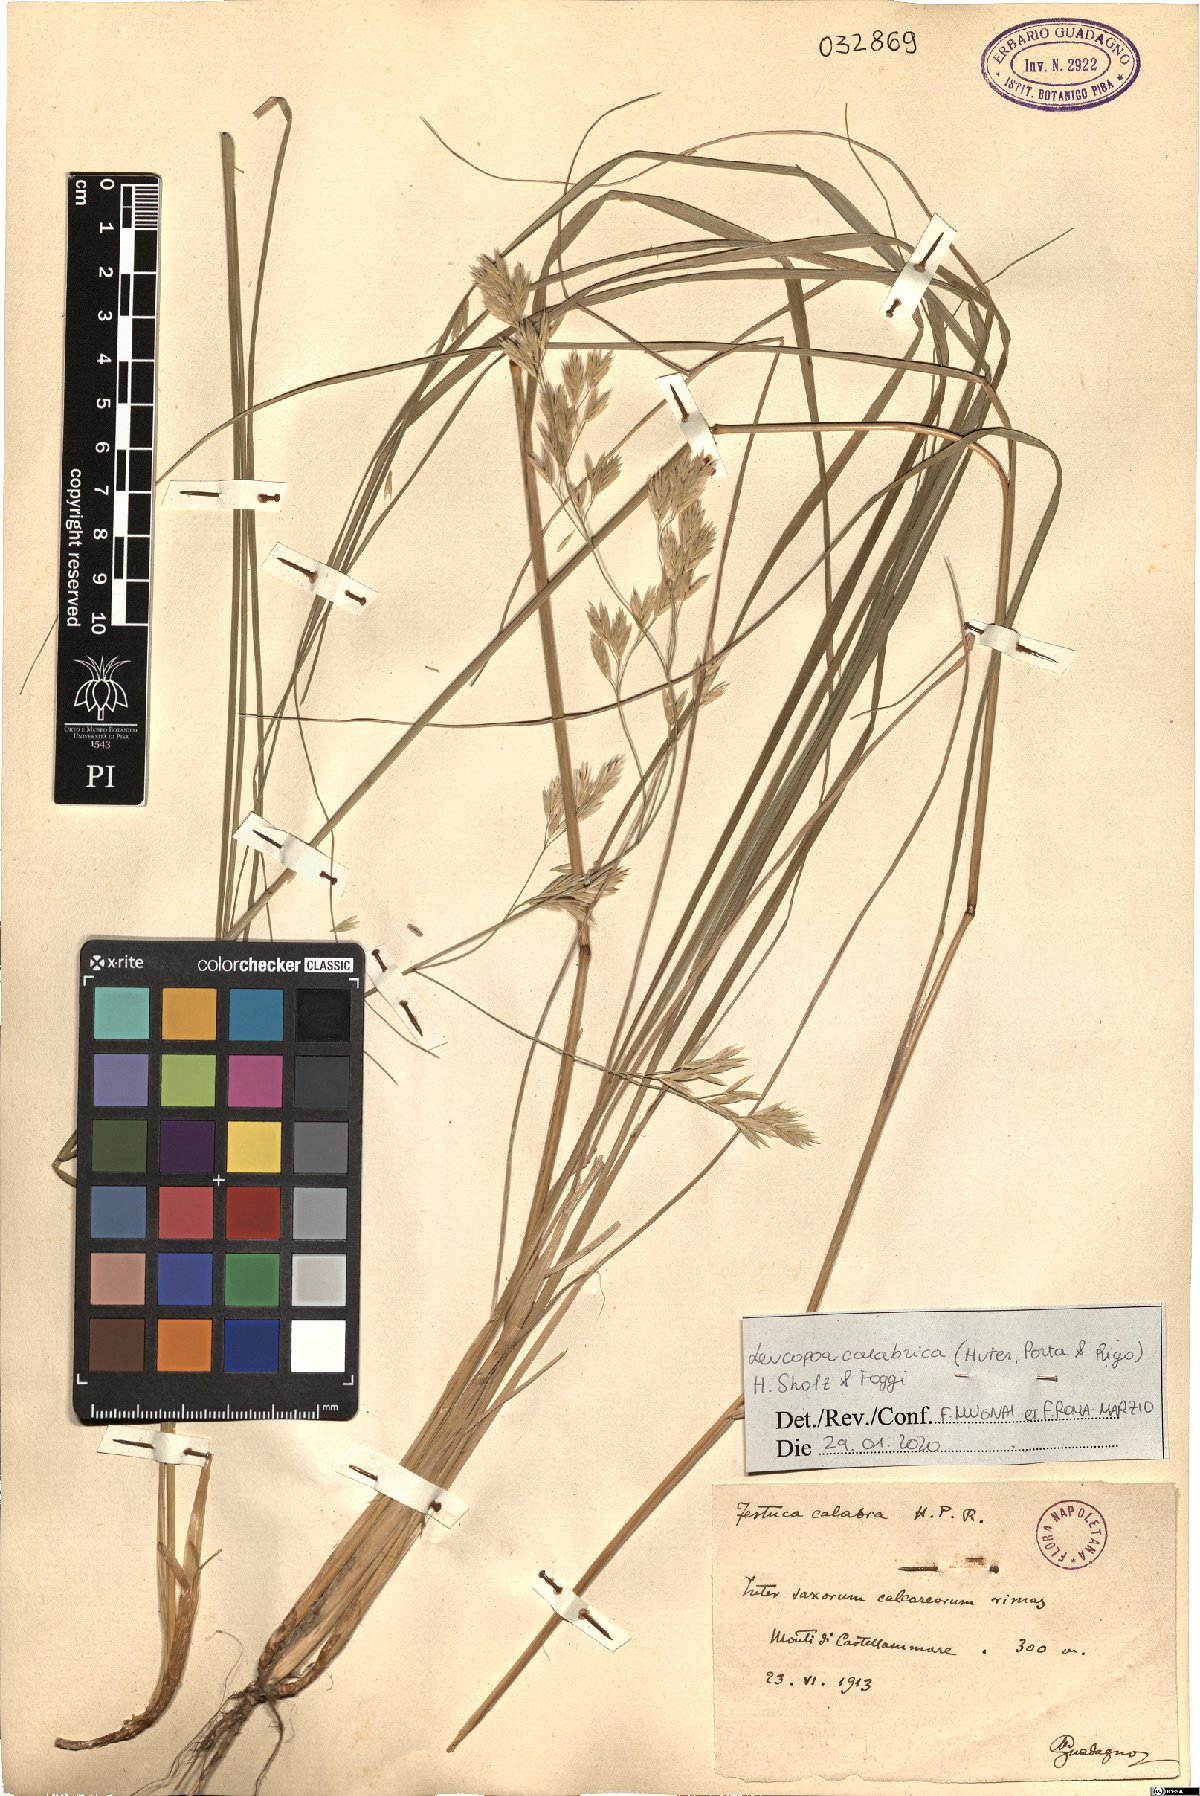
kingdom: Plantae
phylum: Tracheophyta
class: Liliopsida
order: Poales
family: Poaceae
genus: Festuca
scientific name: Festuca calabrica
